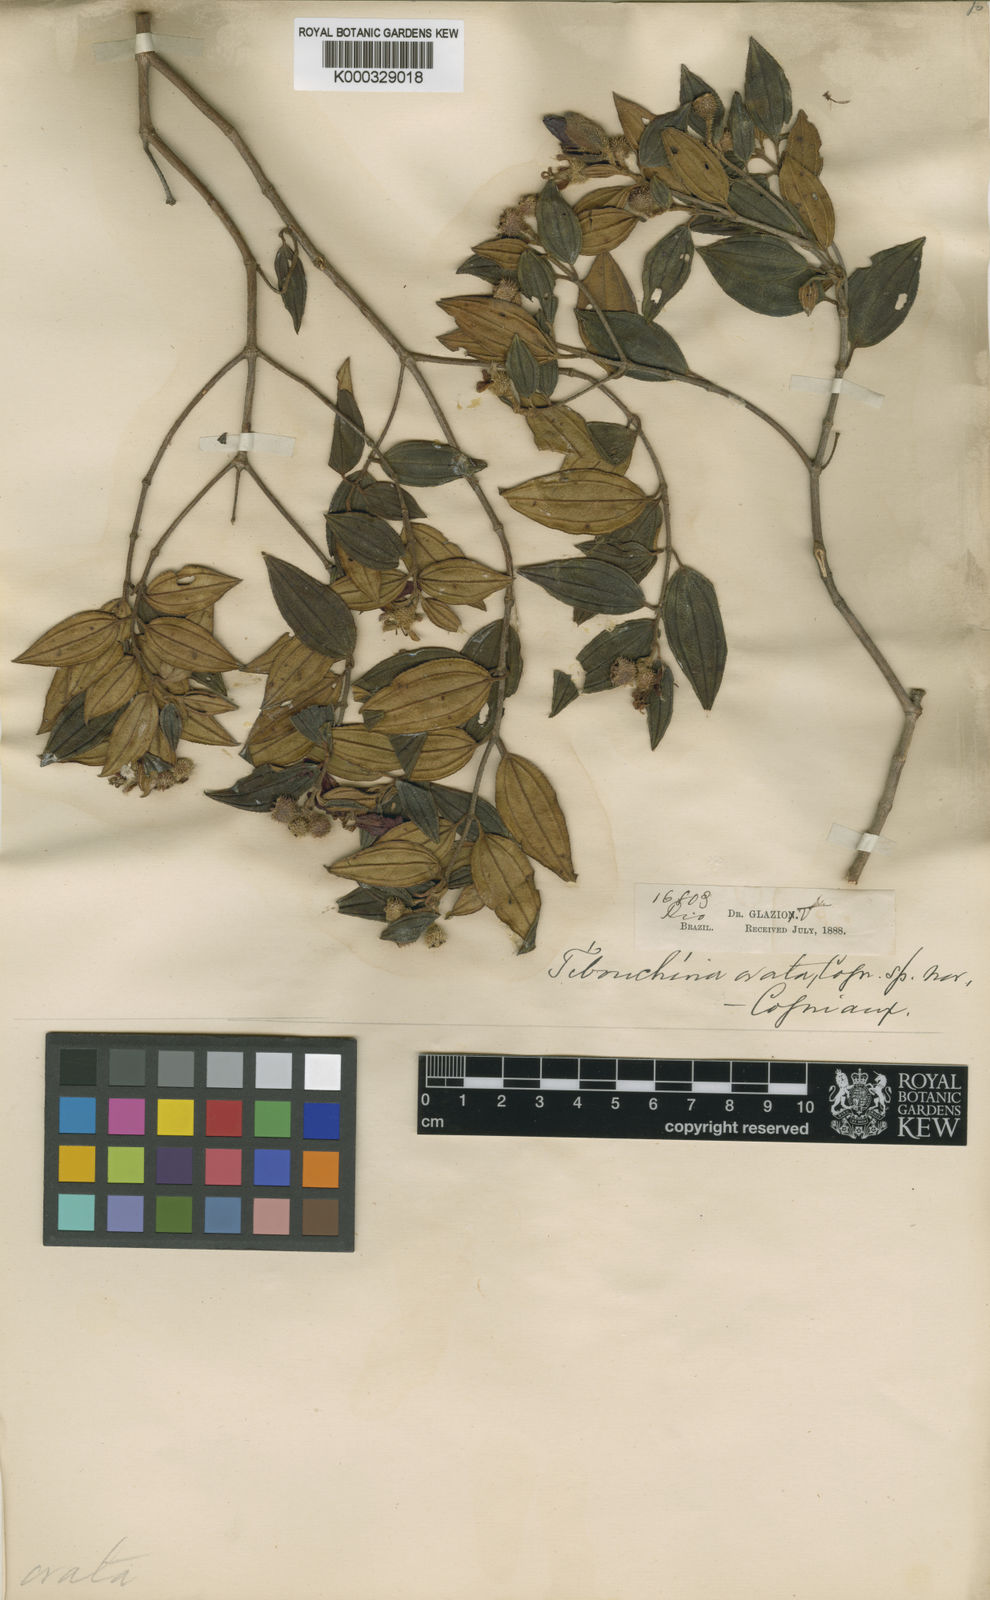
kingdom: Plantae
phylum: Tracheophyta
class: Magnoliopsida
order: Myrtales
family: Melastomataceae
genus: Pleroma
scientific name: Pleroma floribundum
